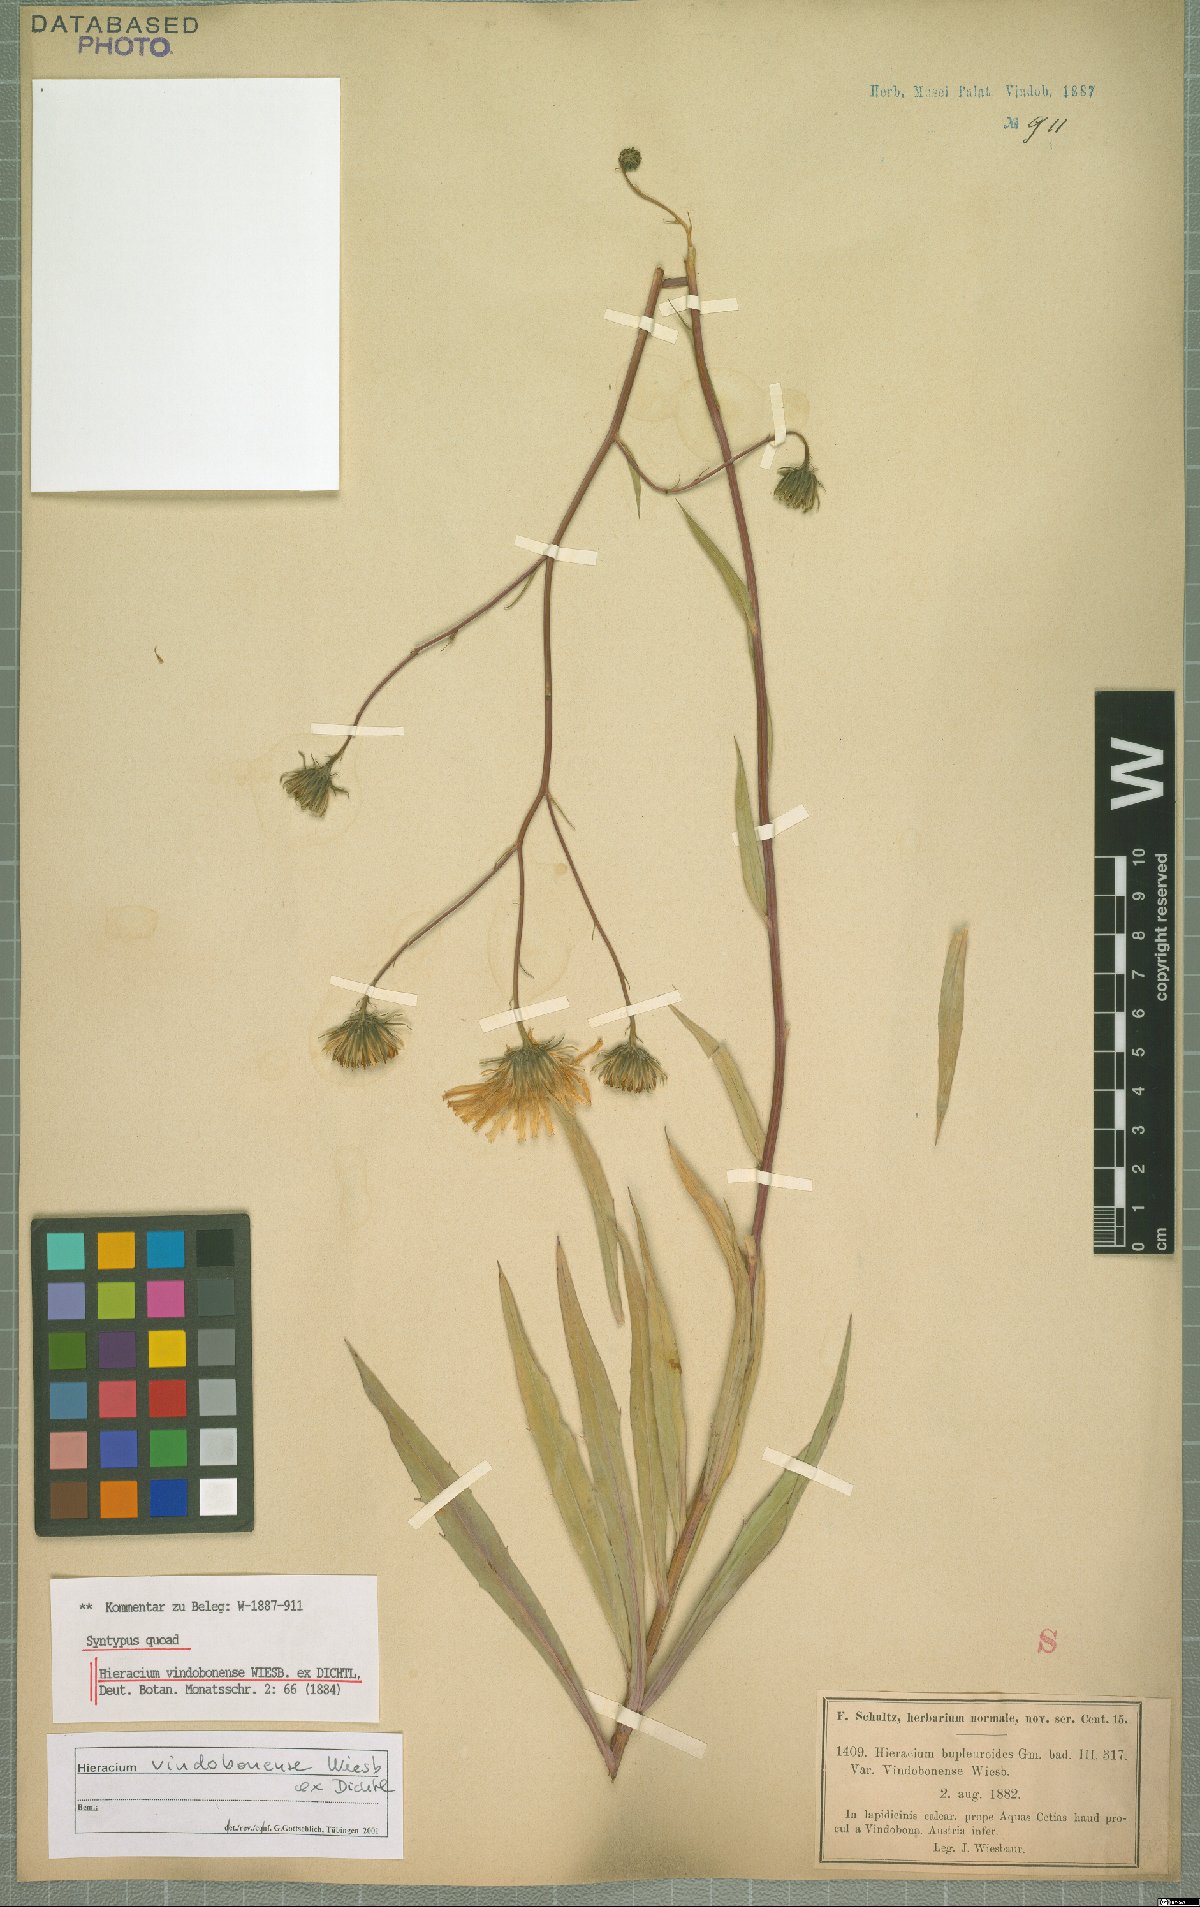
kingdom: Plantae
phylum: Tracheophyta
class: Magnoliopsida
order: Asterales
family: Asteraceae
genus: Hieracium
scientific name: Hieracium vindobonense
